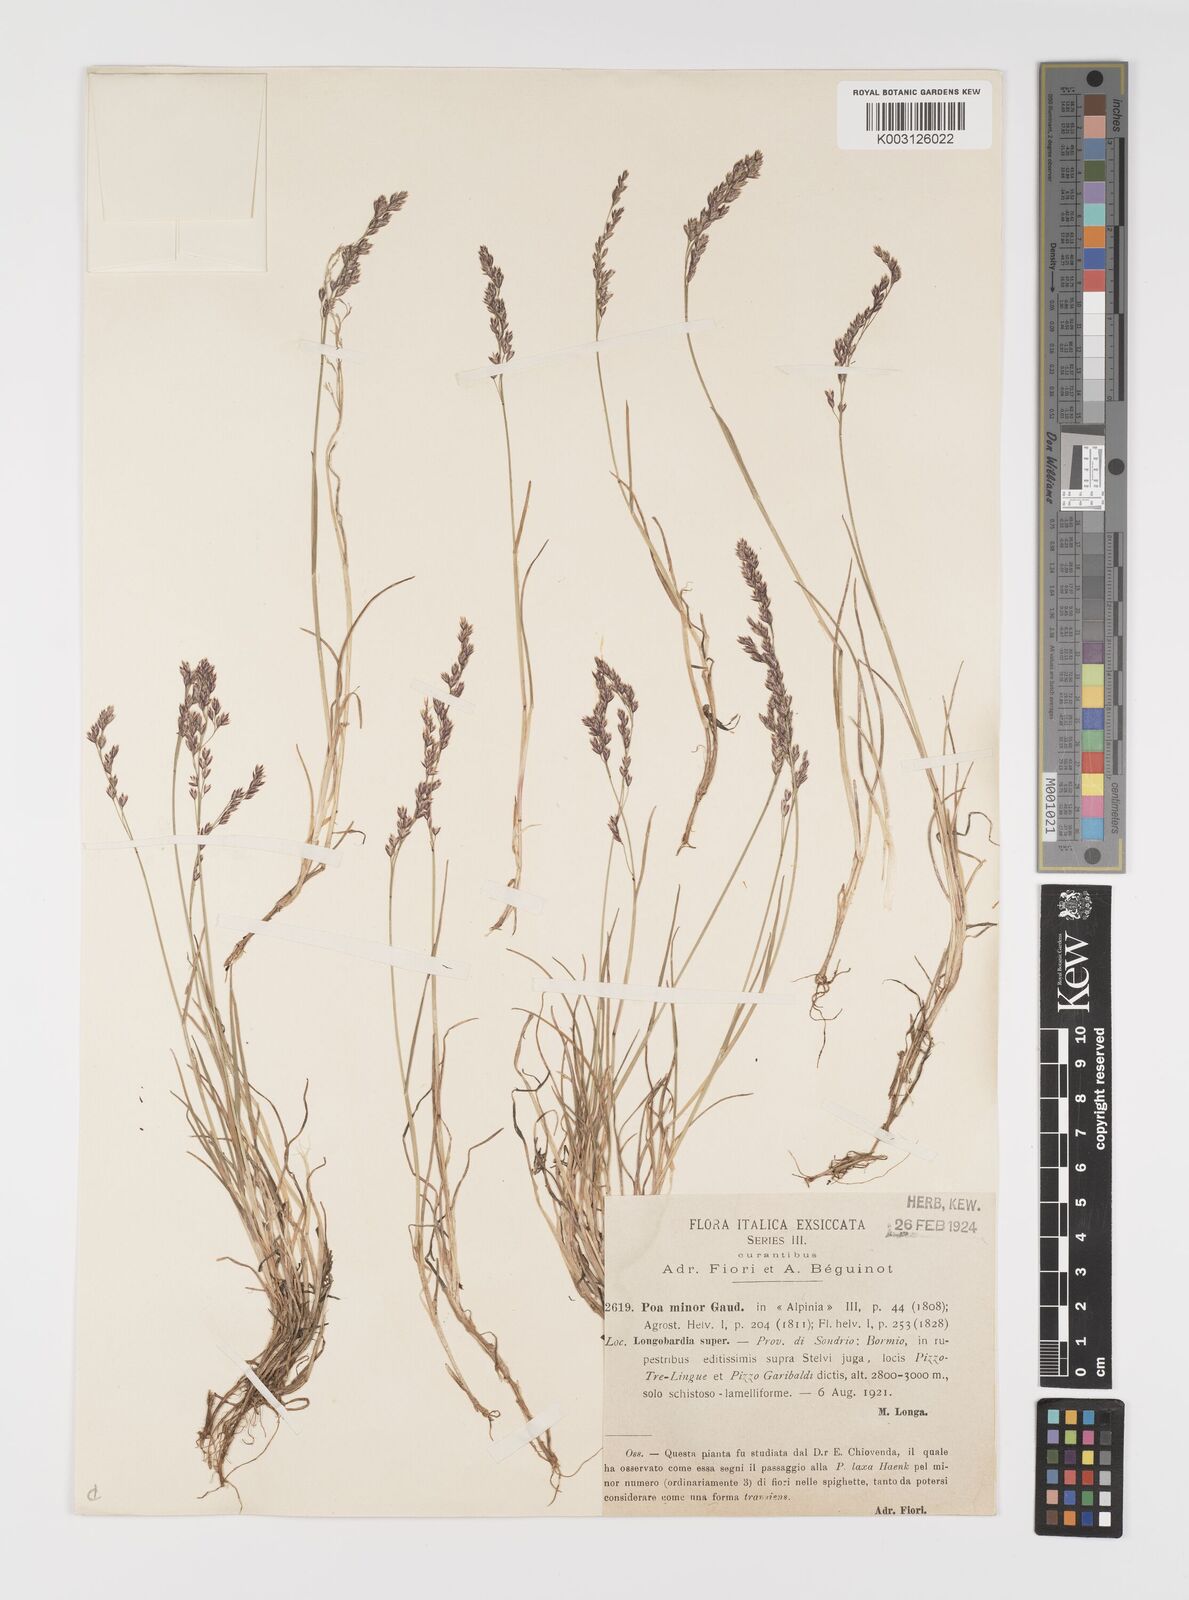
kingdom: Plantae
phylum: Tracheophyta
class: Liliopsida
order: Poales
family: Poaceae
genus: Poa
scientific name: Poa minor
